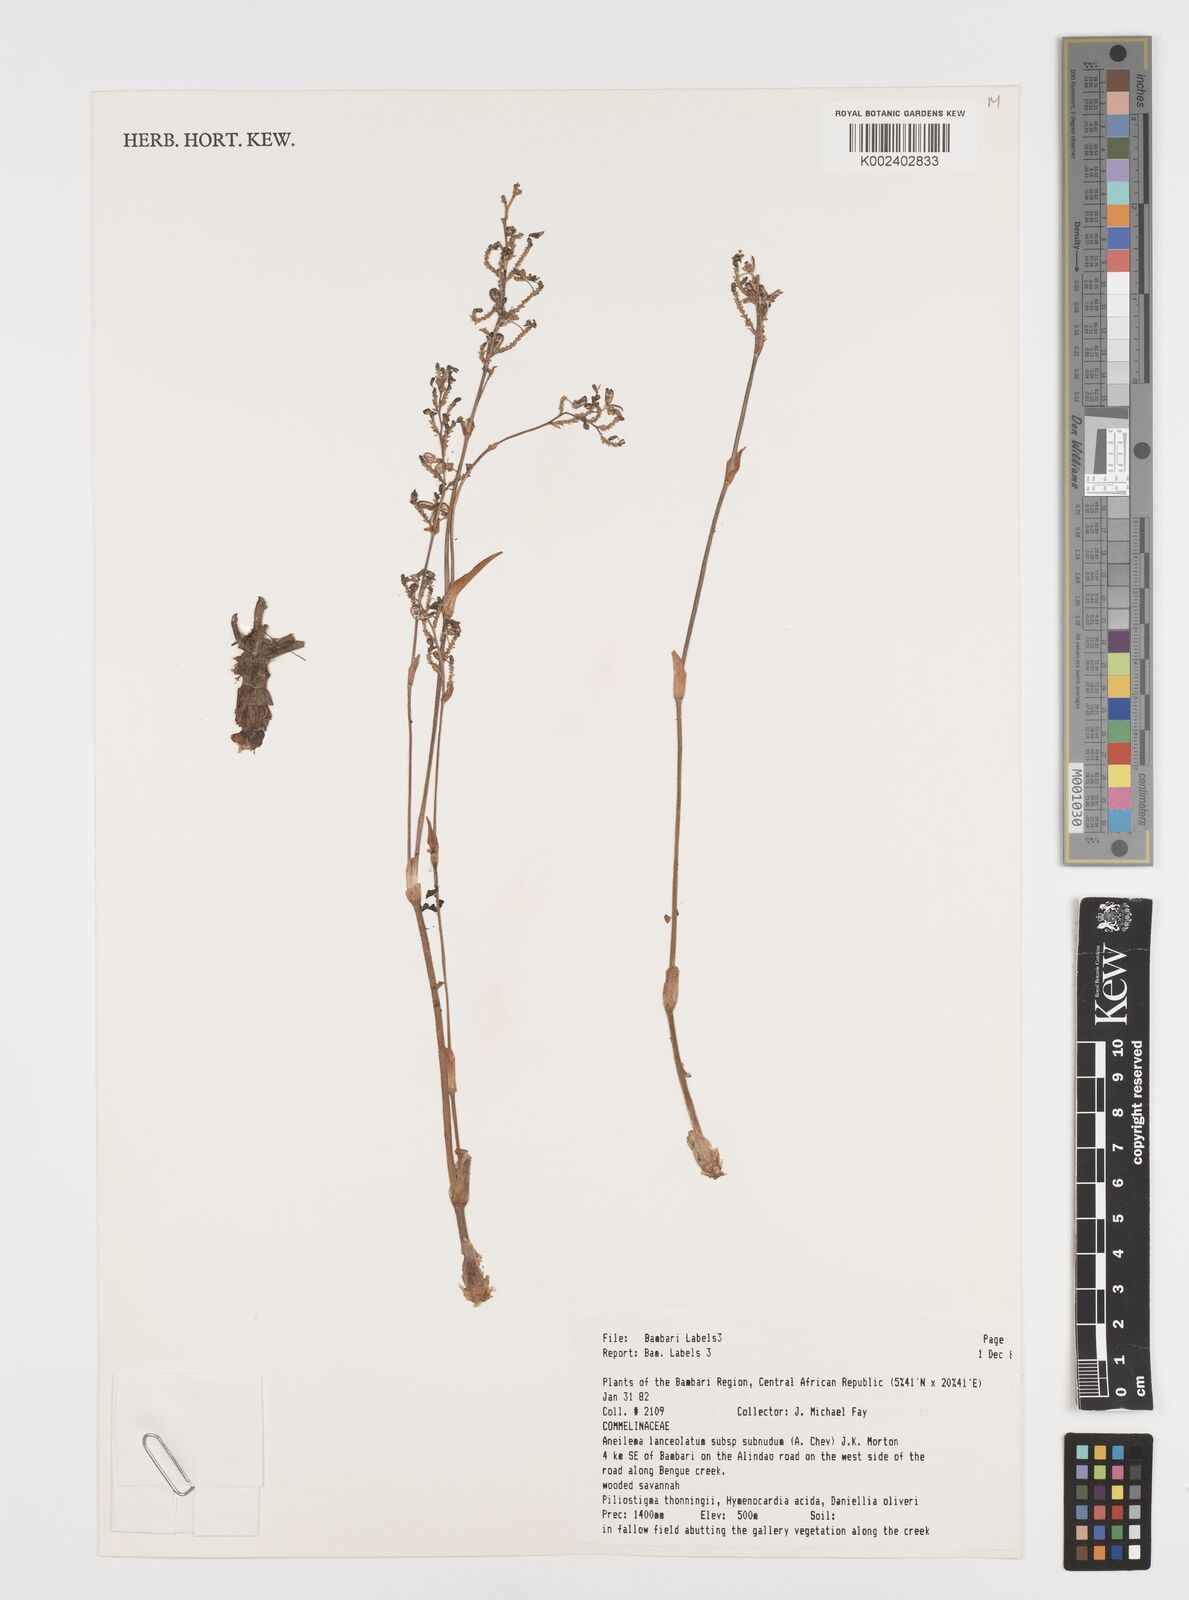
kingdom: Plantae
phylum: Tracheophyta
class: Liliopsida
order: Commelinales
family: Commelinaceae
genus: Aneilema
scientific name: Aneilema lanceolatum
